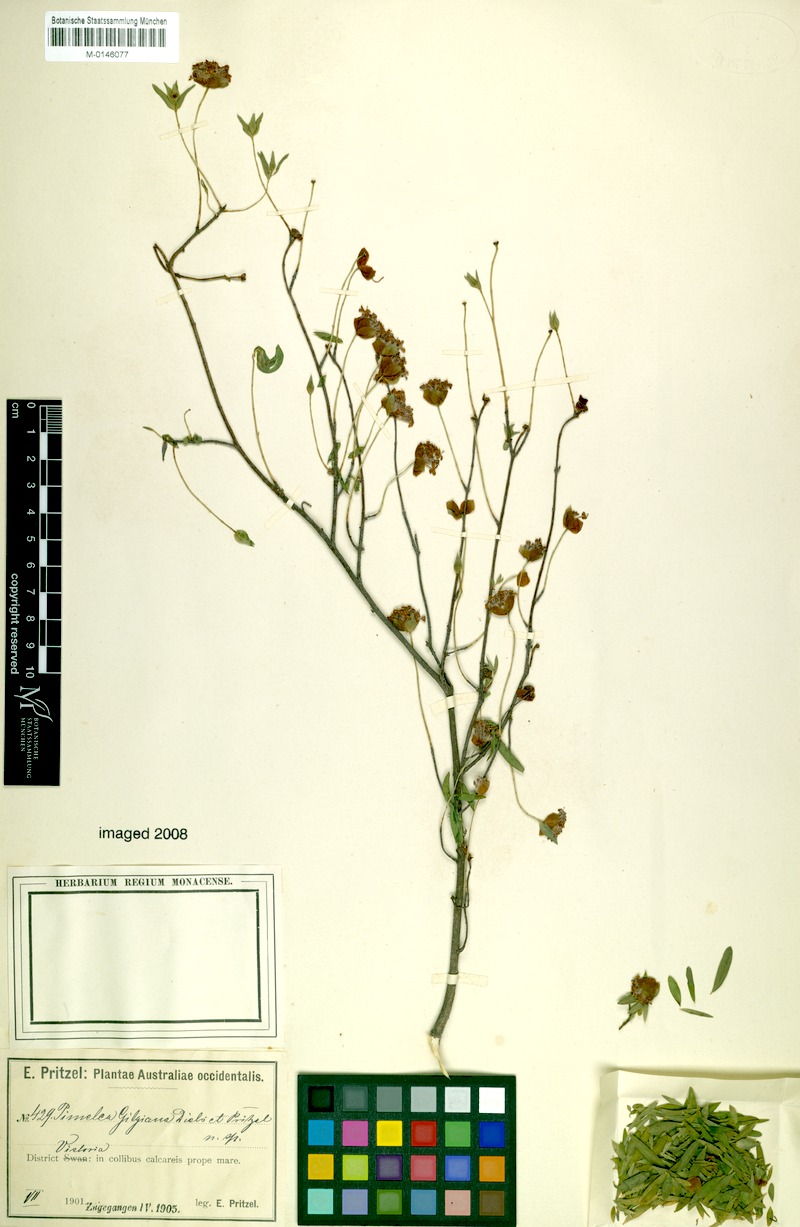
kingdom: Plantae
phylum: Tracheophyta
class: Magnoliopsida
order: Malvales
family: Thymelaeaceae
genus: Pimelea
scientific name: Pimelea gilgiana
